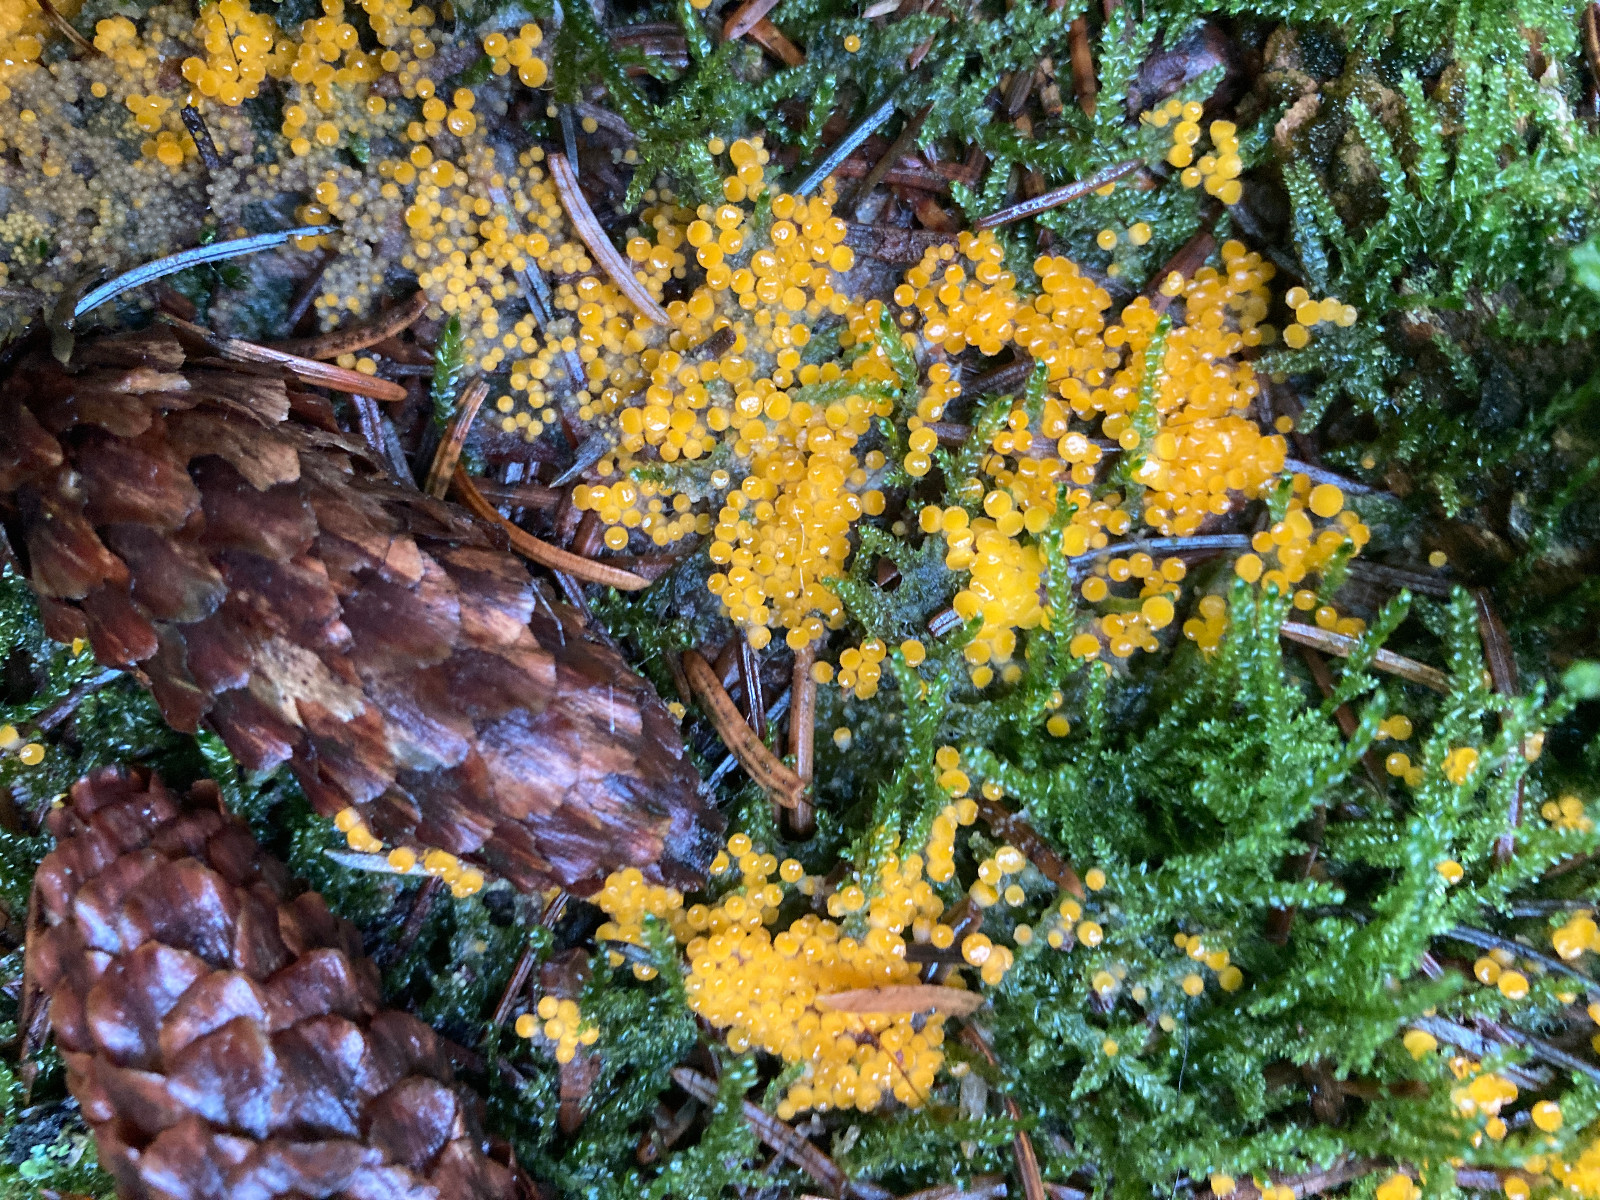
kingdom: Fungi
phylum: Ascomycota
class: Pezizomycetes
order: Pezizales
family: Pyronemataceae
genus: Byssonectria
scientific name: Byssonectria terrestris
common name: hjortebæger
